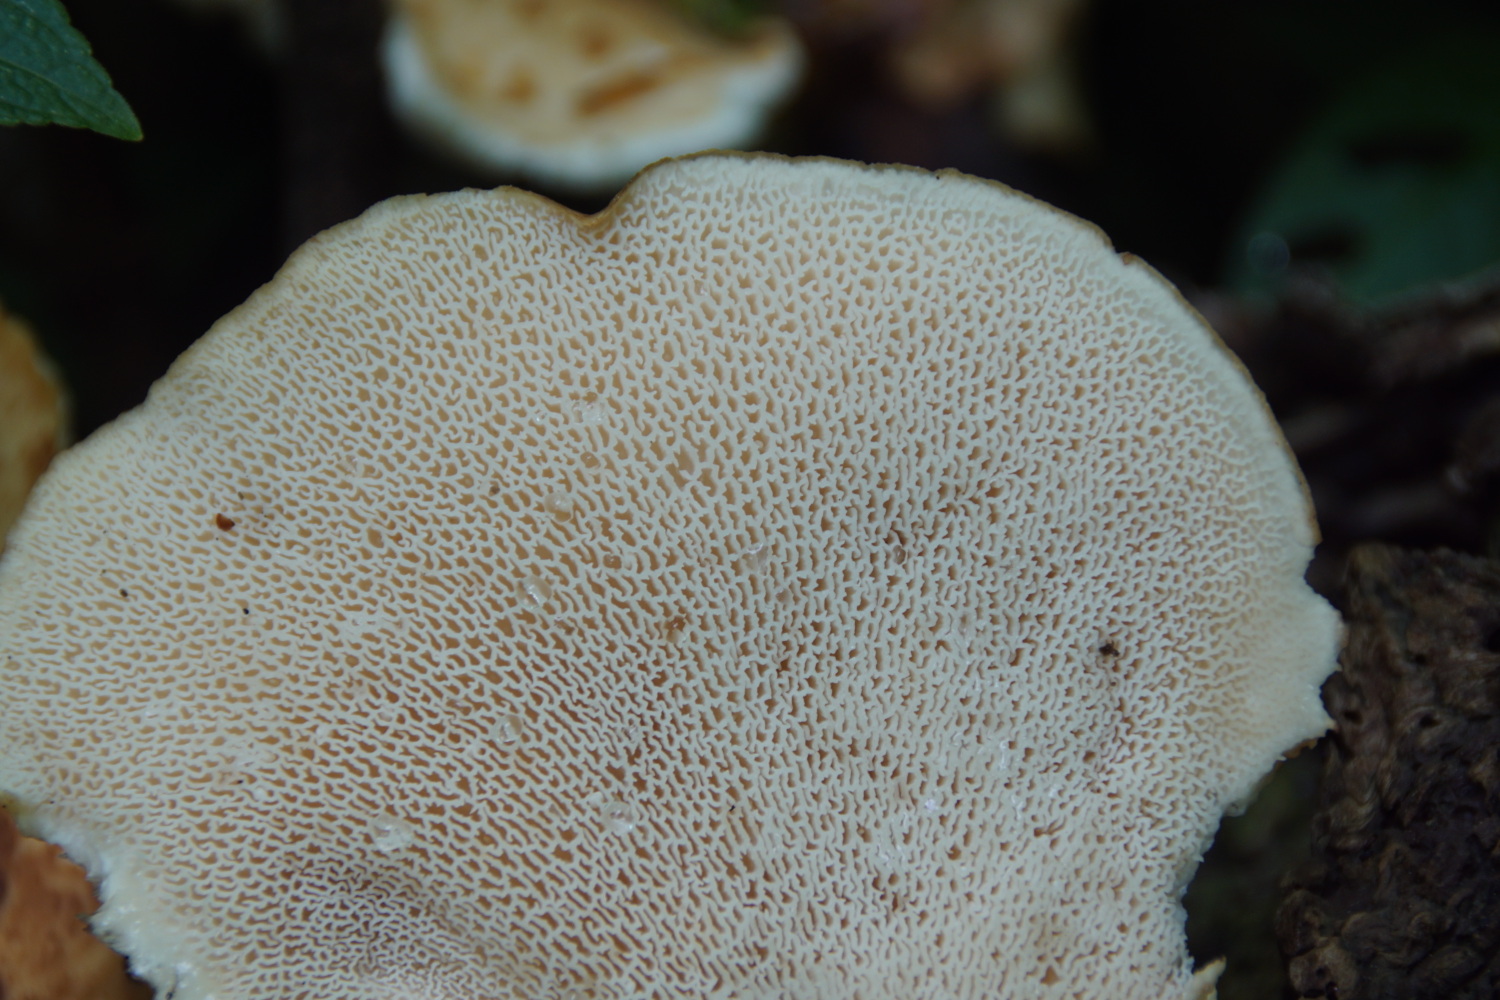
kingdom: Fungi
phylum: Basidiomycota
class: Agaricomycetes
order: Polyporales
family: Polyporaceae
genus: Cerioporus
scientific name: Cerioporus squamosus
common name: skællet stilkporesvamp
